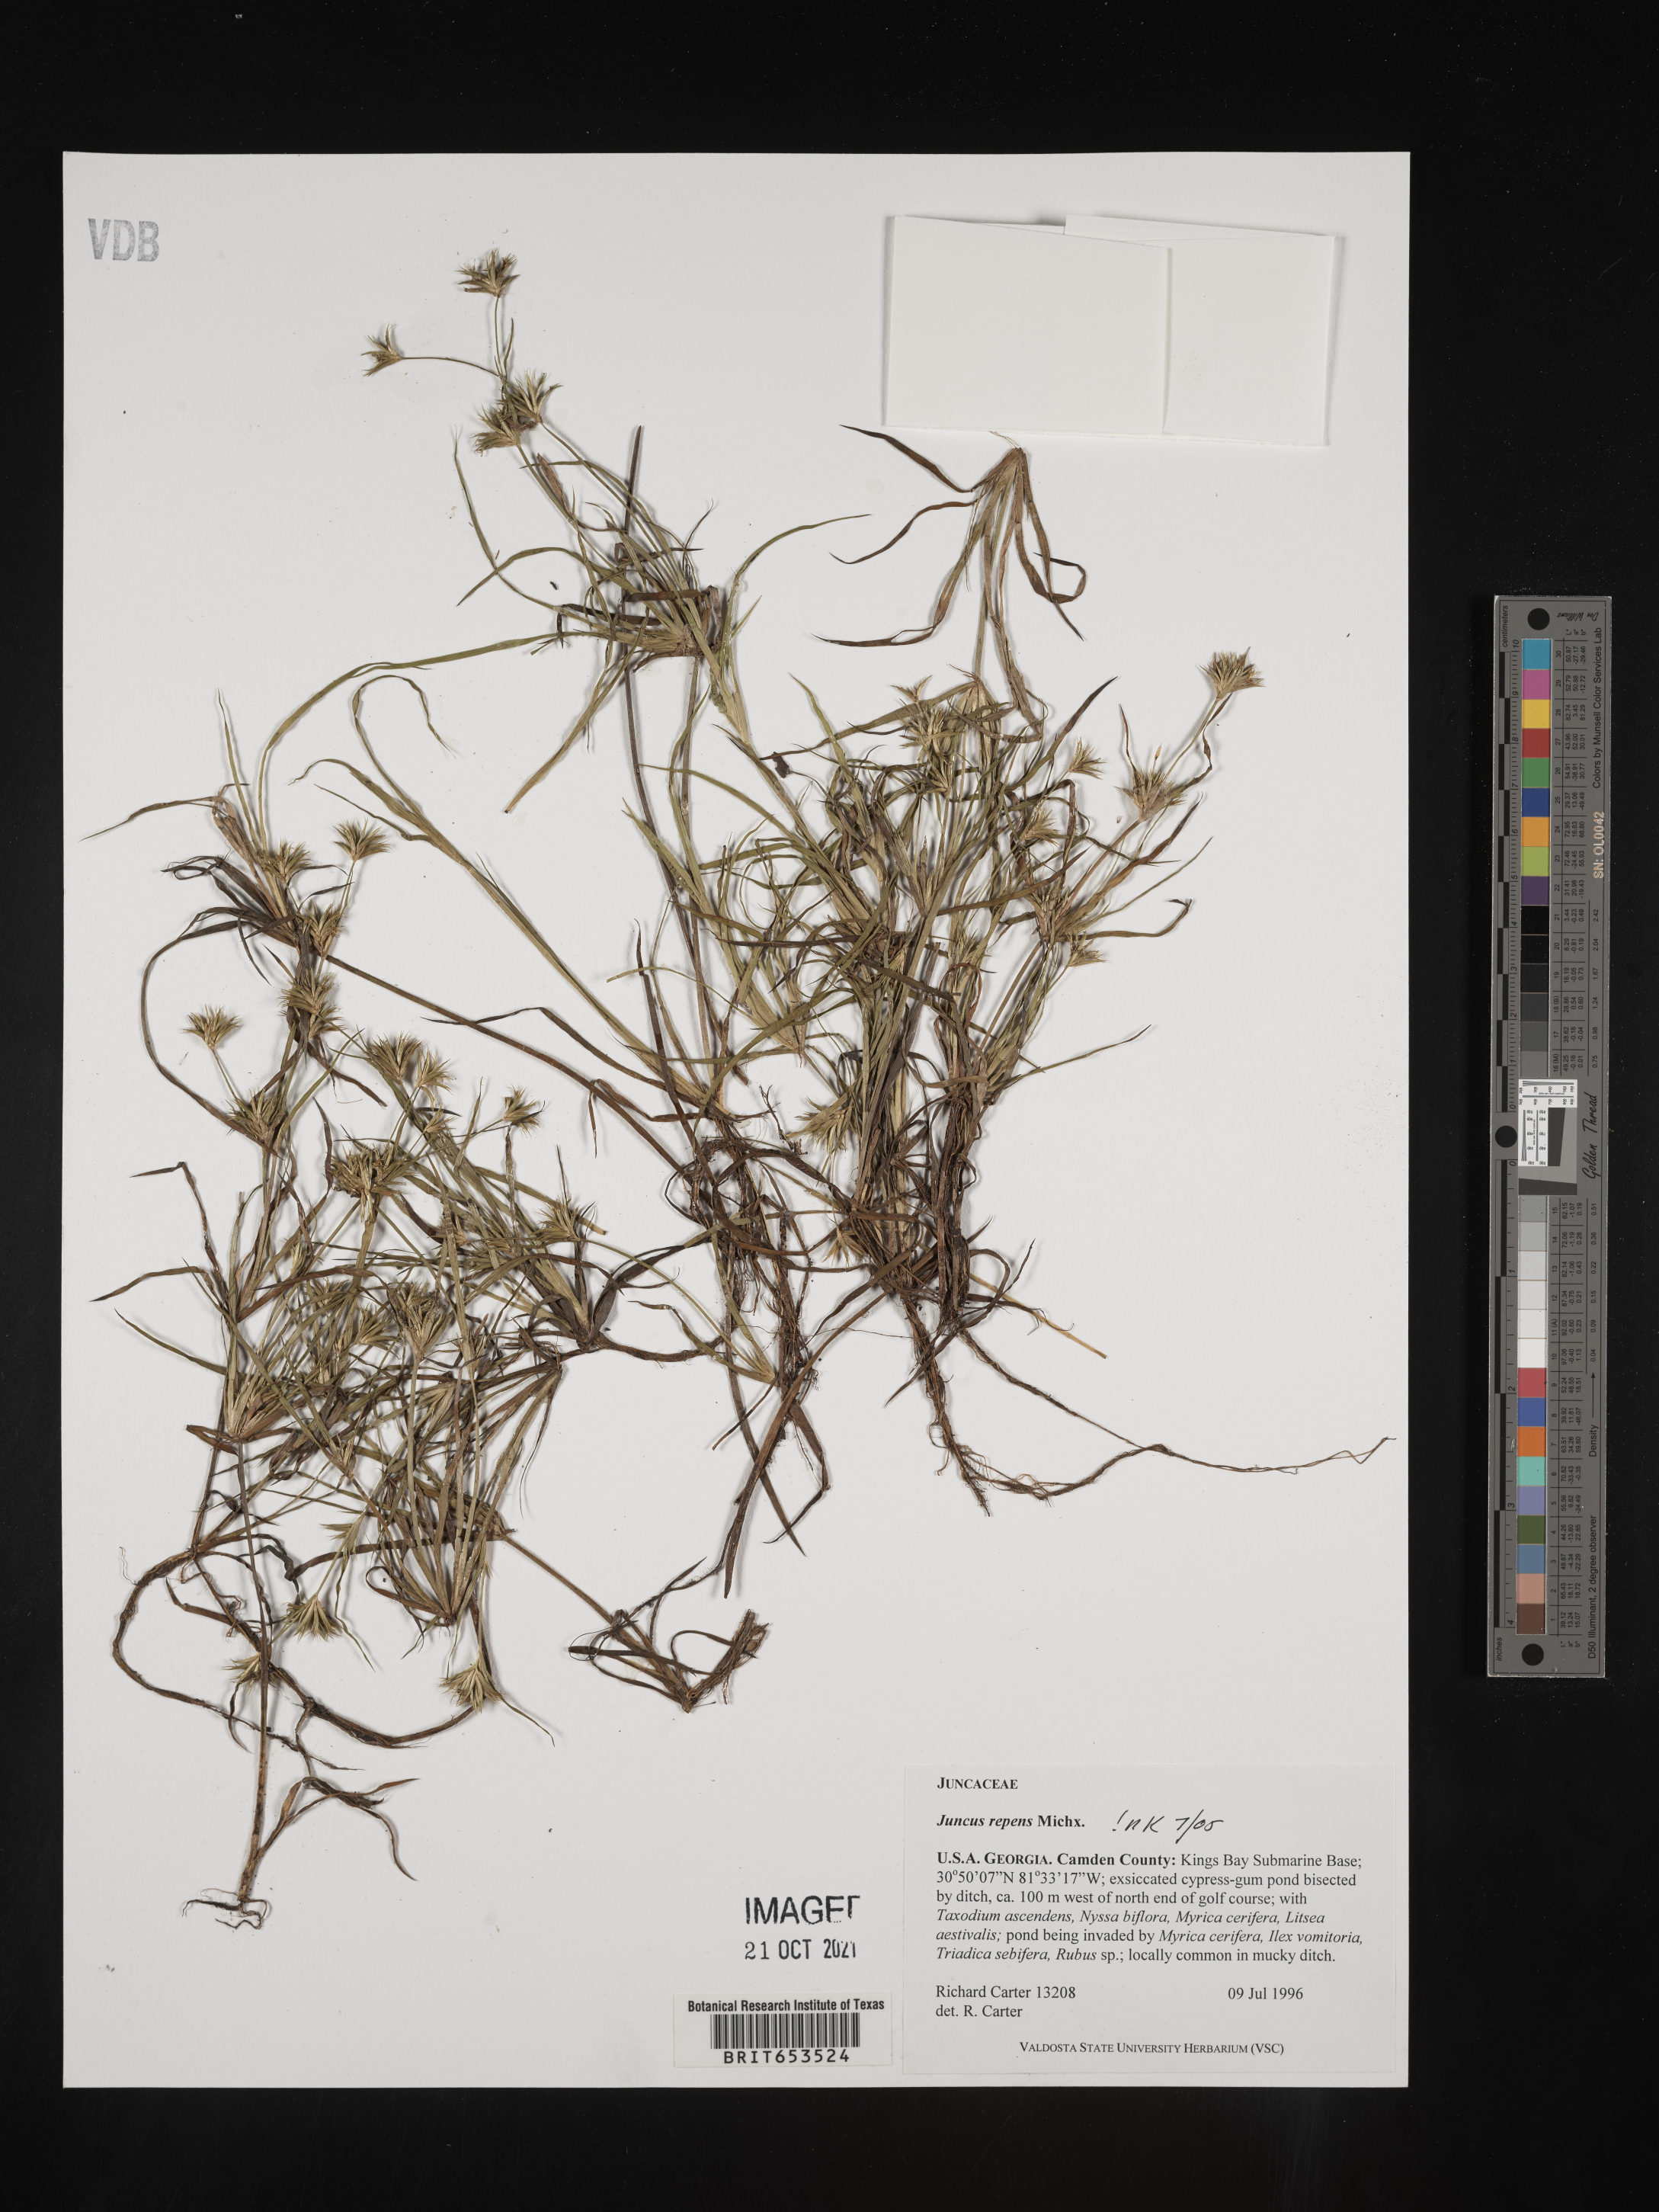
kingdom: Plantae
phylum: Tracheophyta
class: Liliopsida
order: Poales
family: Juncaceae
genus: Juncus
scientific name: Juncus repens
